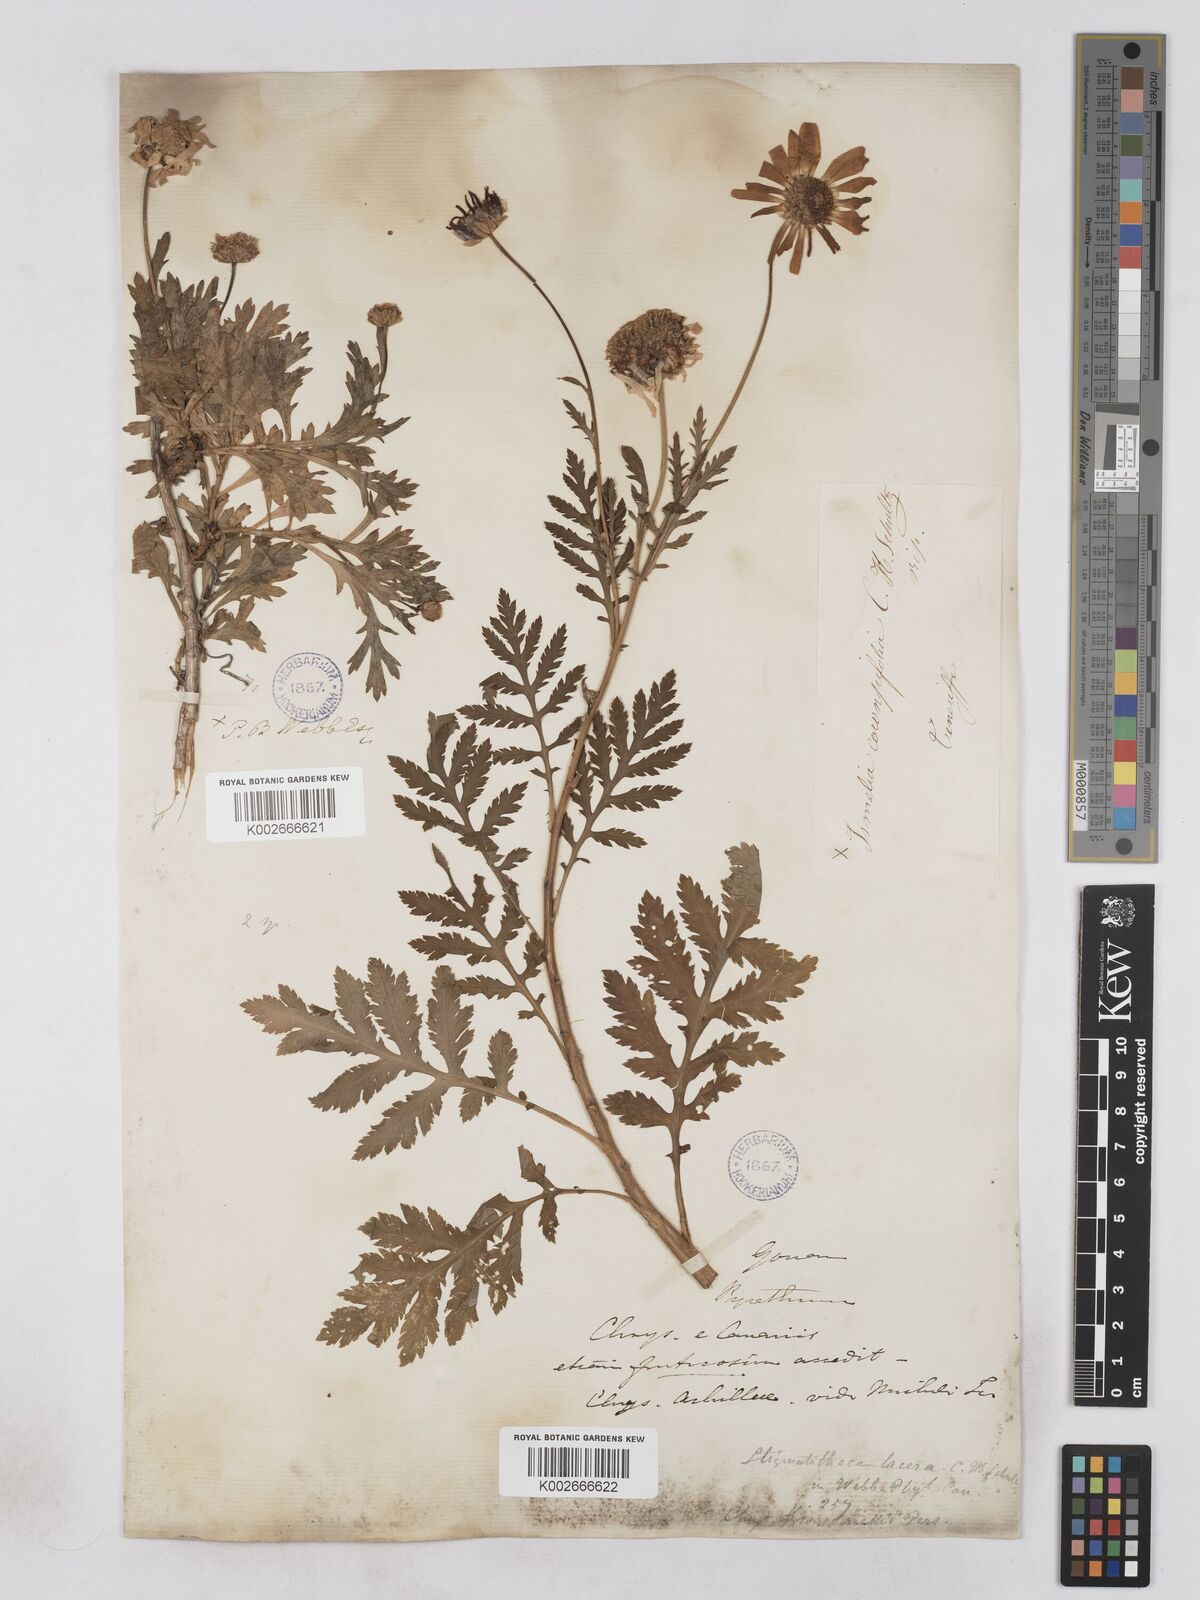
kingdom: Plantae
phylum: Tracheophyta
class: Magnoliopsida
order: Asterales
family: Asteraceae
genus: Argyranthemum
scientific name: Argyranthemum broussonetii
